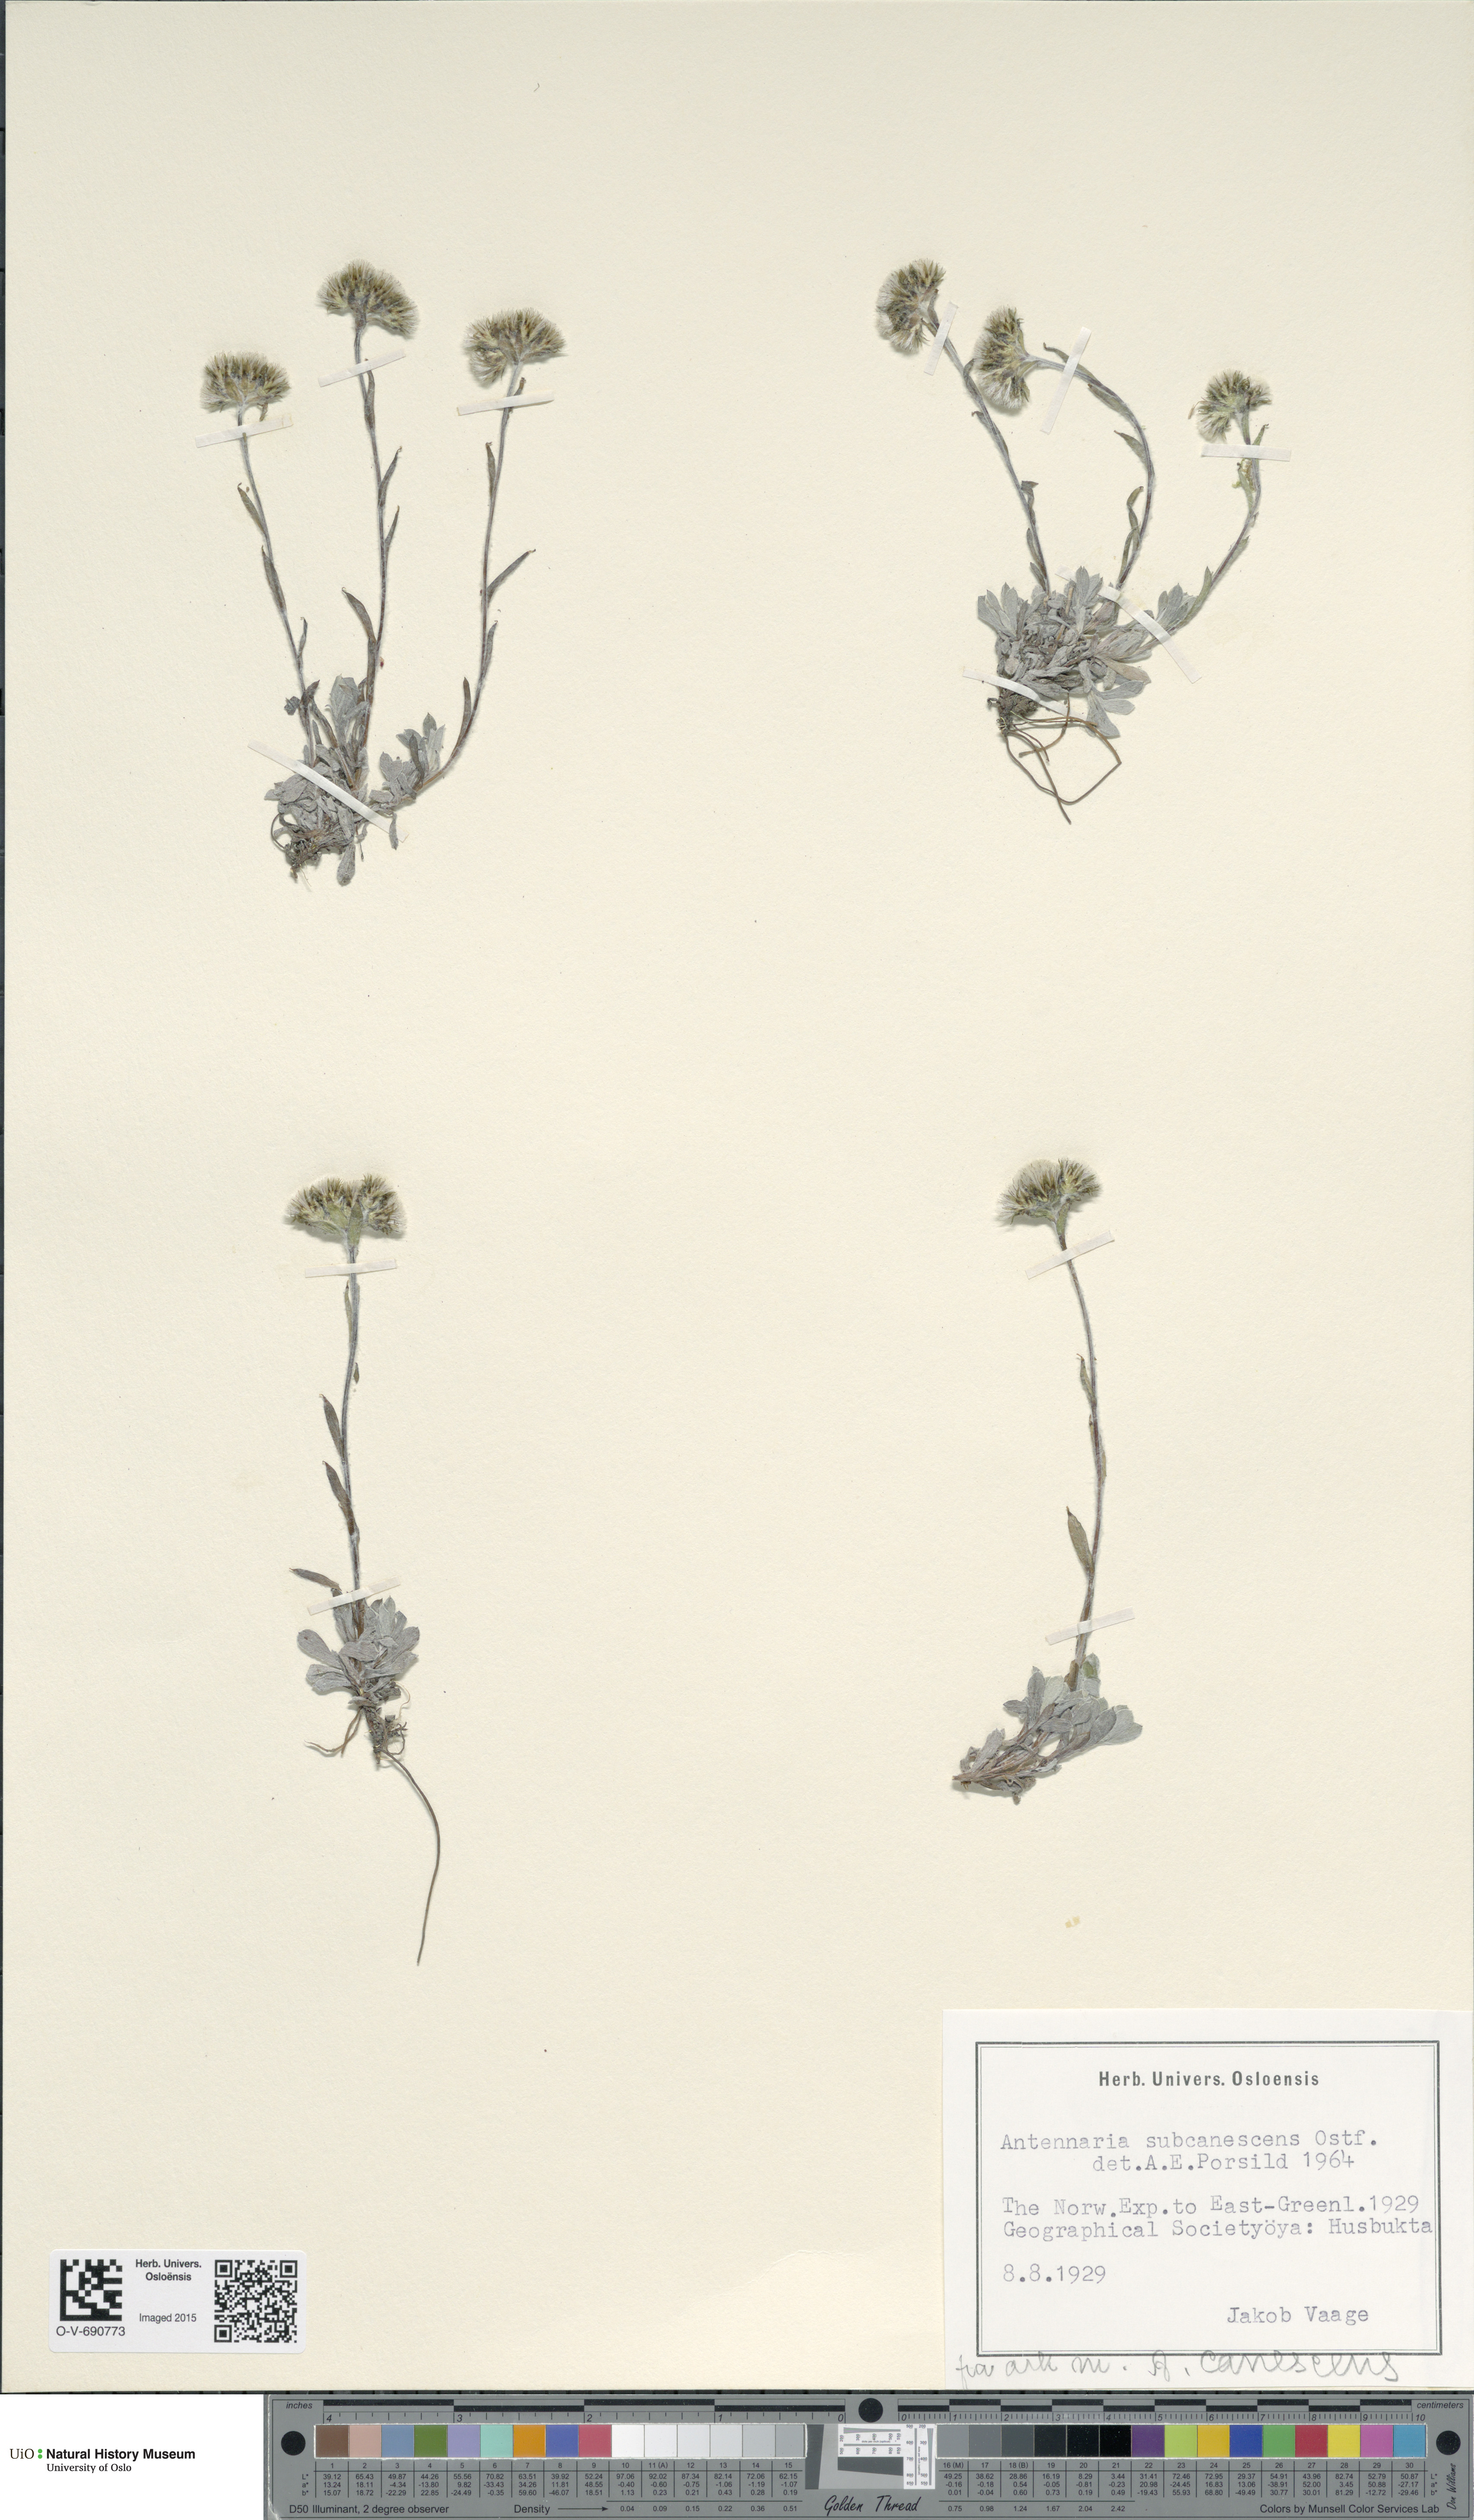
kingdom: Plantae
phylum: Tracheophyta
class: Magnoliopsida
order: Asterales
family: Asteraceae
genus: Antennaria
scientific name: Antennaria canescens
